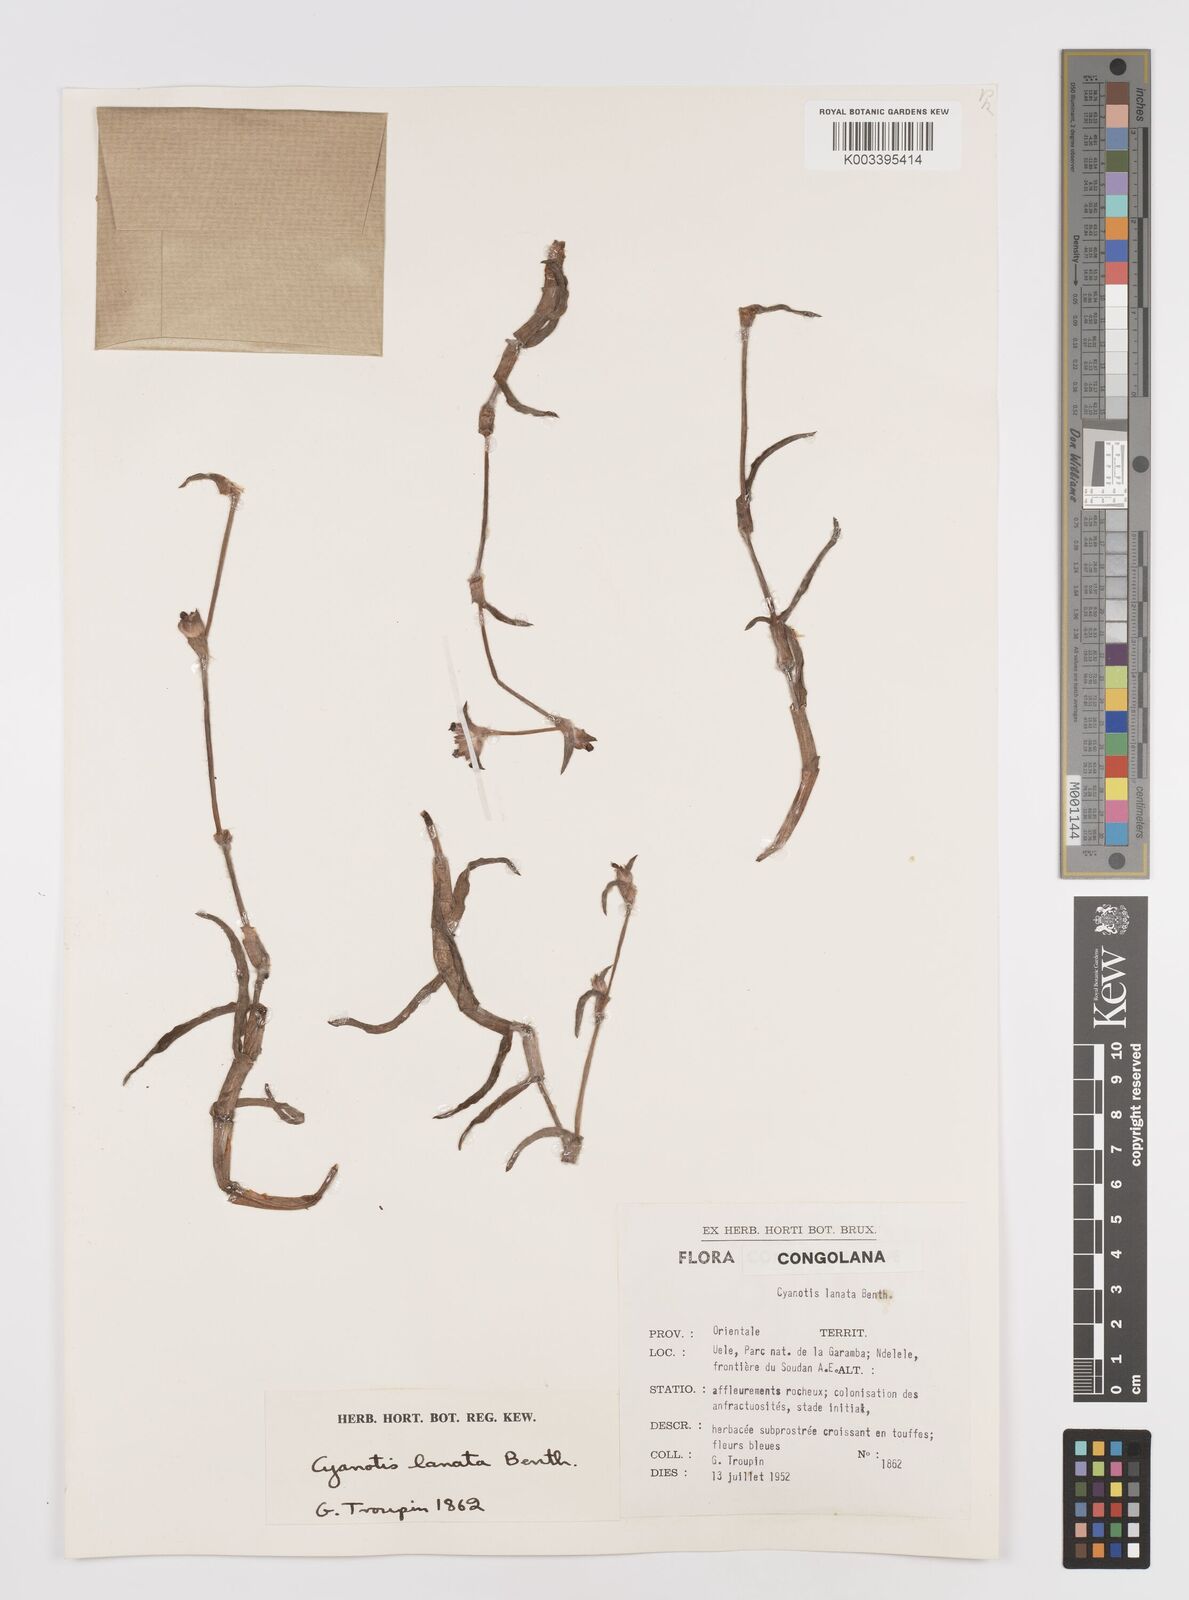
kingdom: Plantae
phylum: Tracheophyta
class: Liliopsida
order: Commelinales
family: Commelinaceae
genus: Cyanotis
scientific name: Cyanotis lanata
